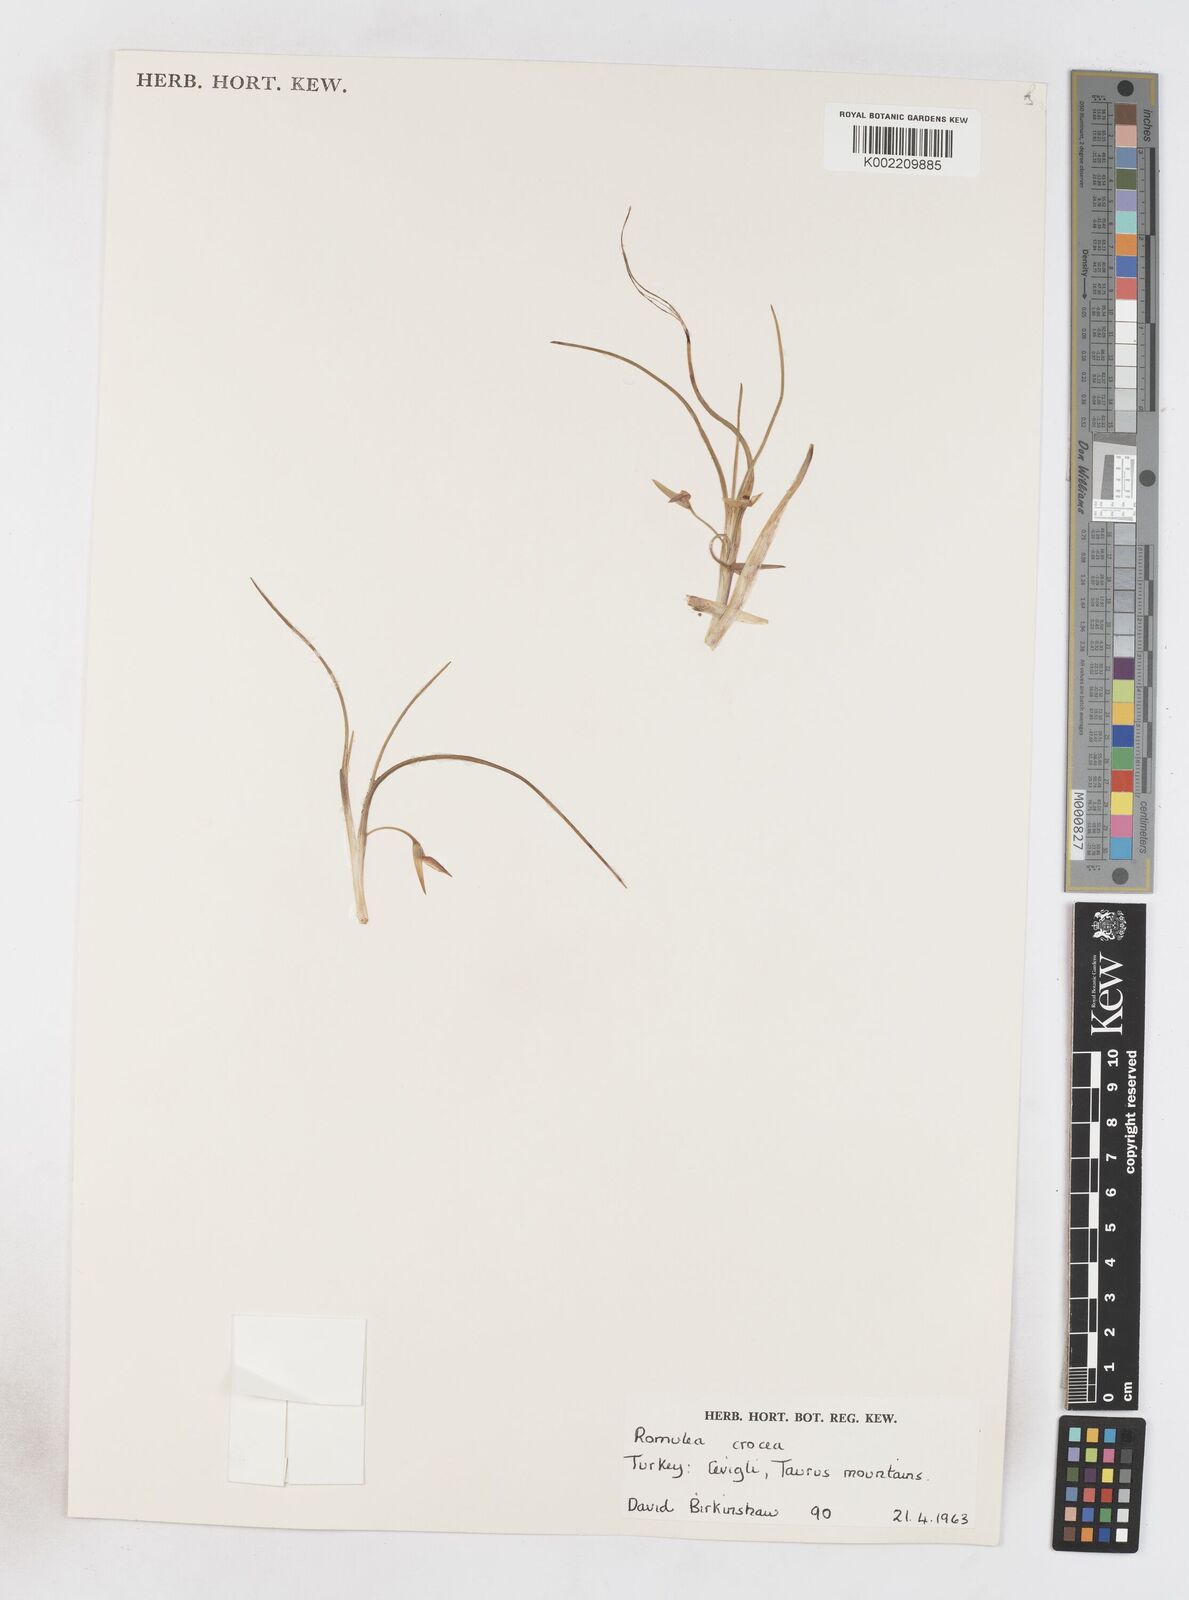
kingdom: Plantae
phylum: Tracheophyta
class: Liliopsida
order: Asparagales
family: Iridaceae
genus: Romulea
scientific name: Romulea bulbocodium
